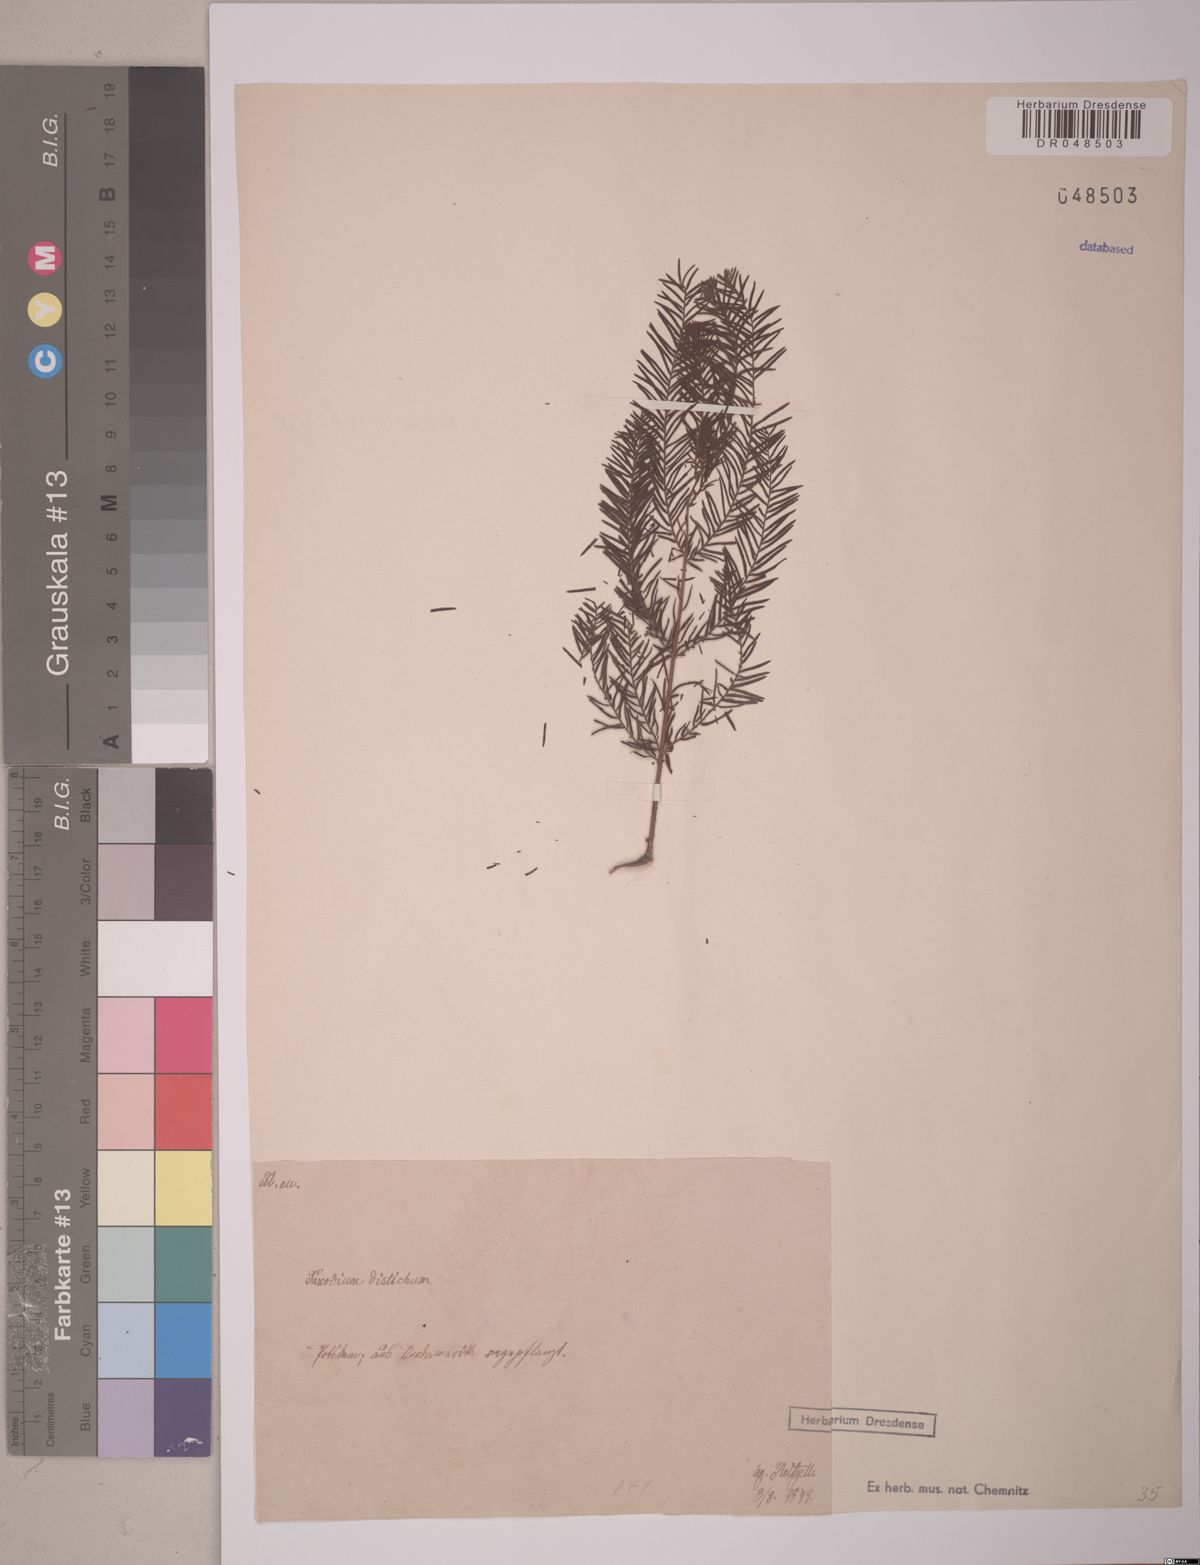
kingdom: Plantae
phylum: Tracheophyta
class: Pinopsida
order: Pinales
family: Cupressaceae
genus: Taxodium
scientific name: Taxodium distichum
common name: Bald cypress
